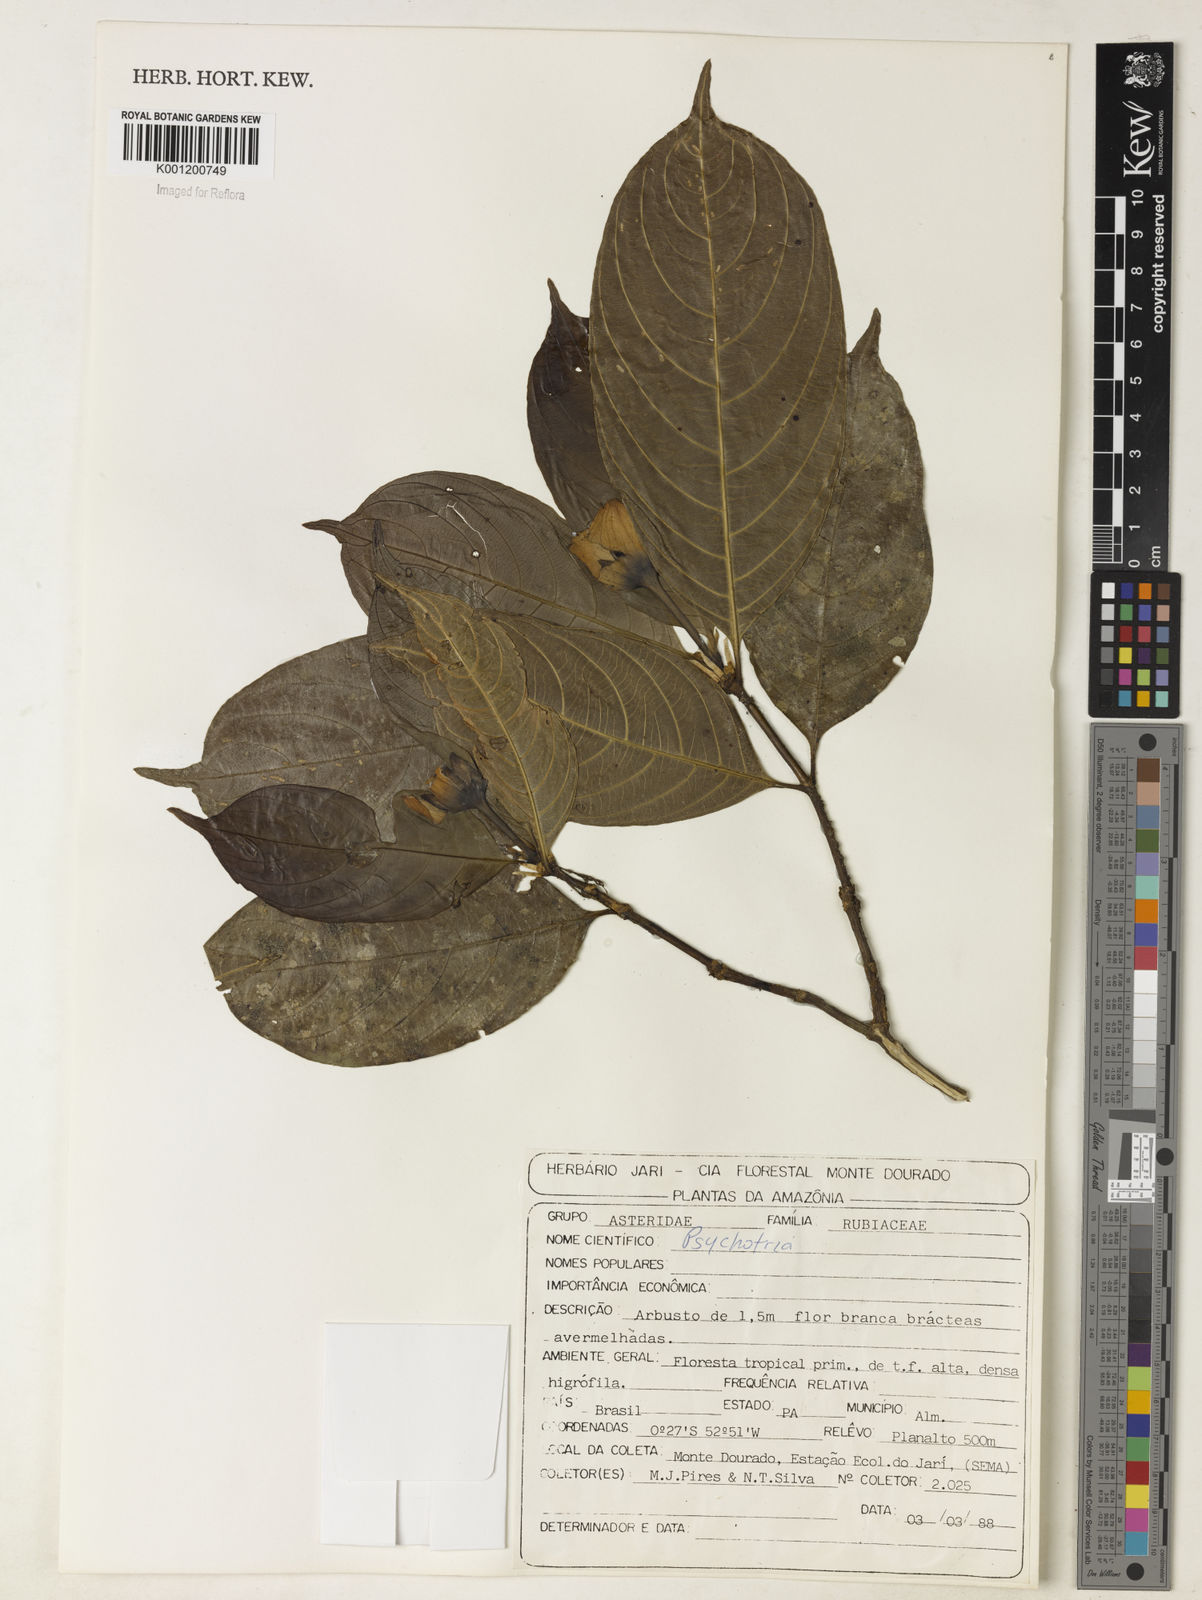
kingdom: Plantae
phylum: Tracheophyta
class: Magnoliopsida
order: Gentianales
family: Rubiaceae
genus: Psychotria
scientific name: Psychotria
